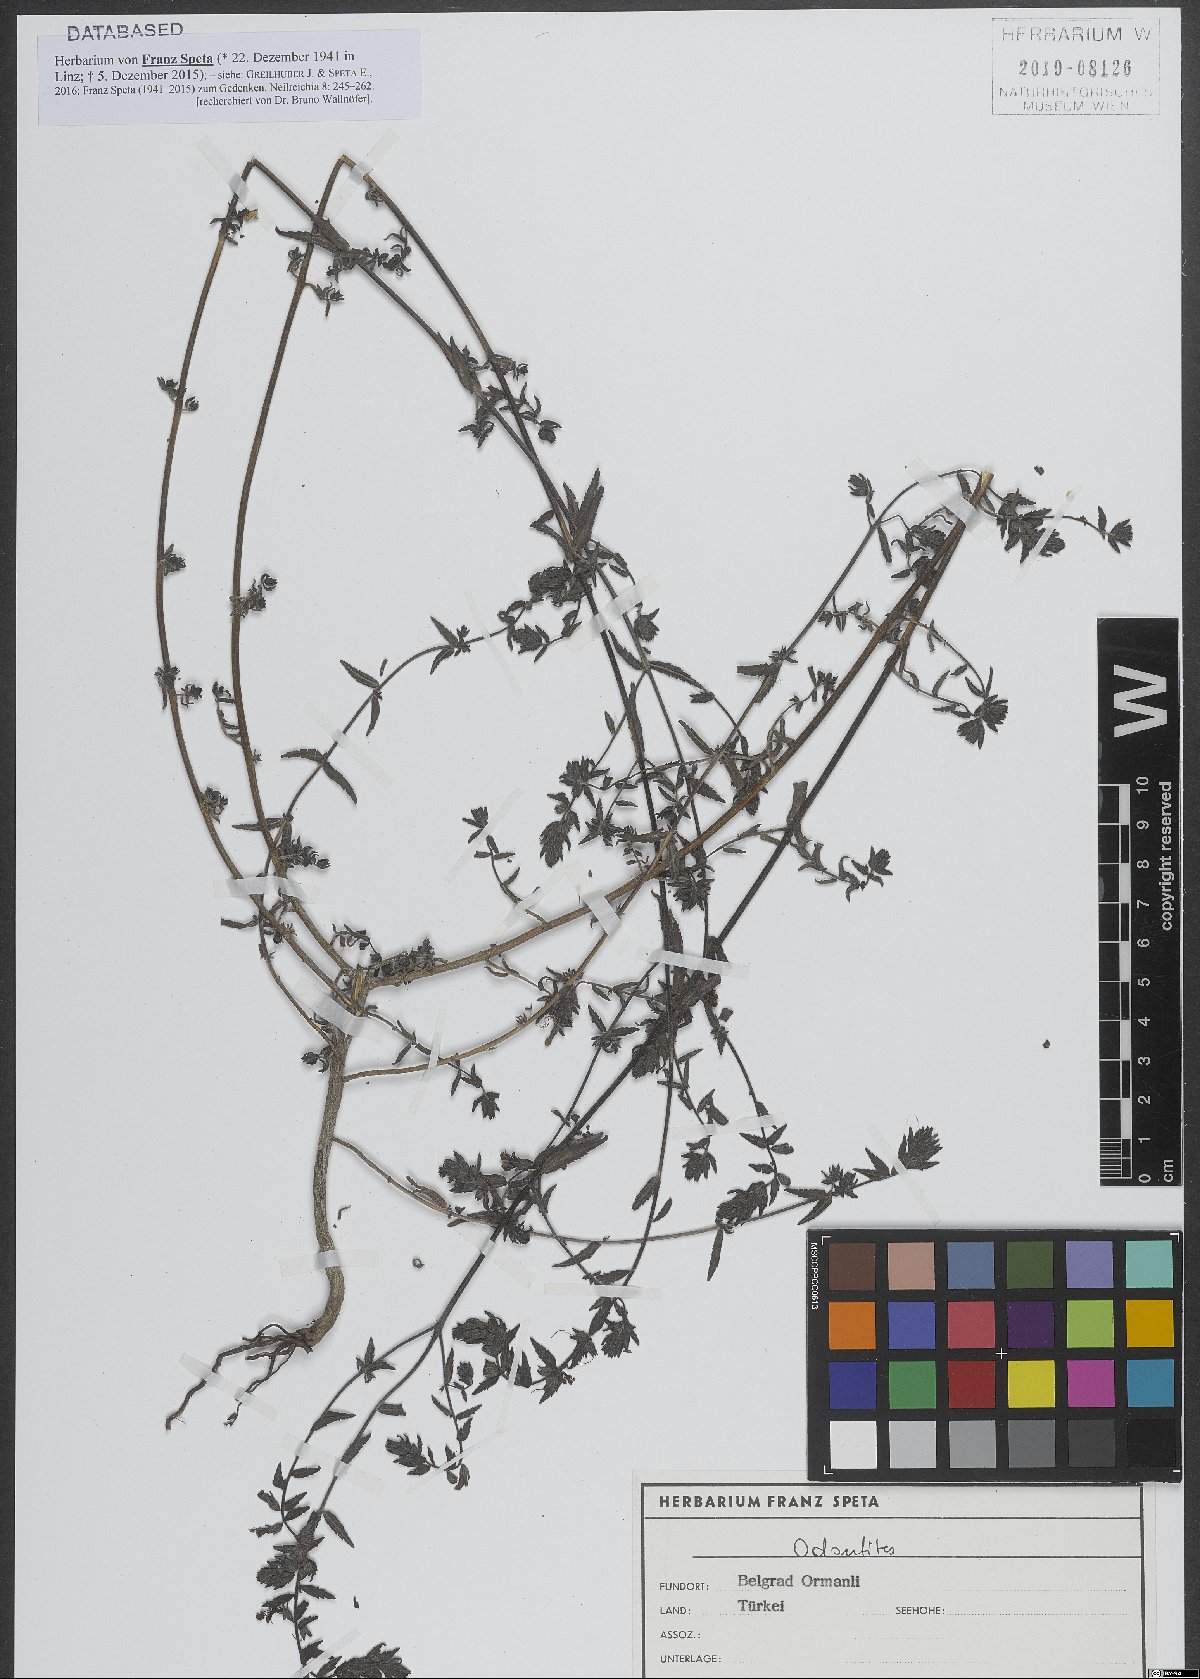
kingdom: Plantae
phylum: Tracheophyta
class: Magnoliopsida
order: Lamiales
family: Orobanchaceae
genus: Odontites
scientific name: Odontites
